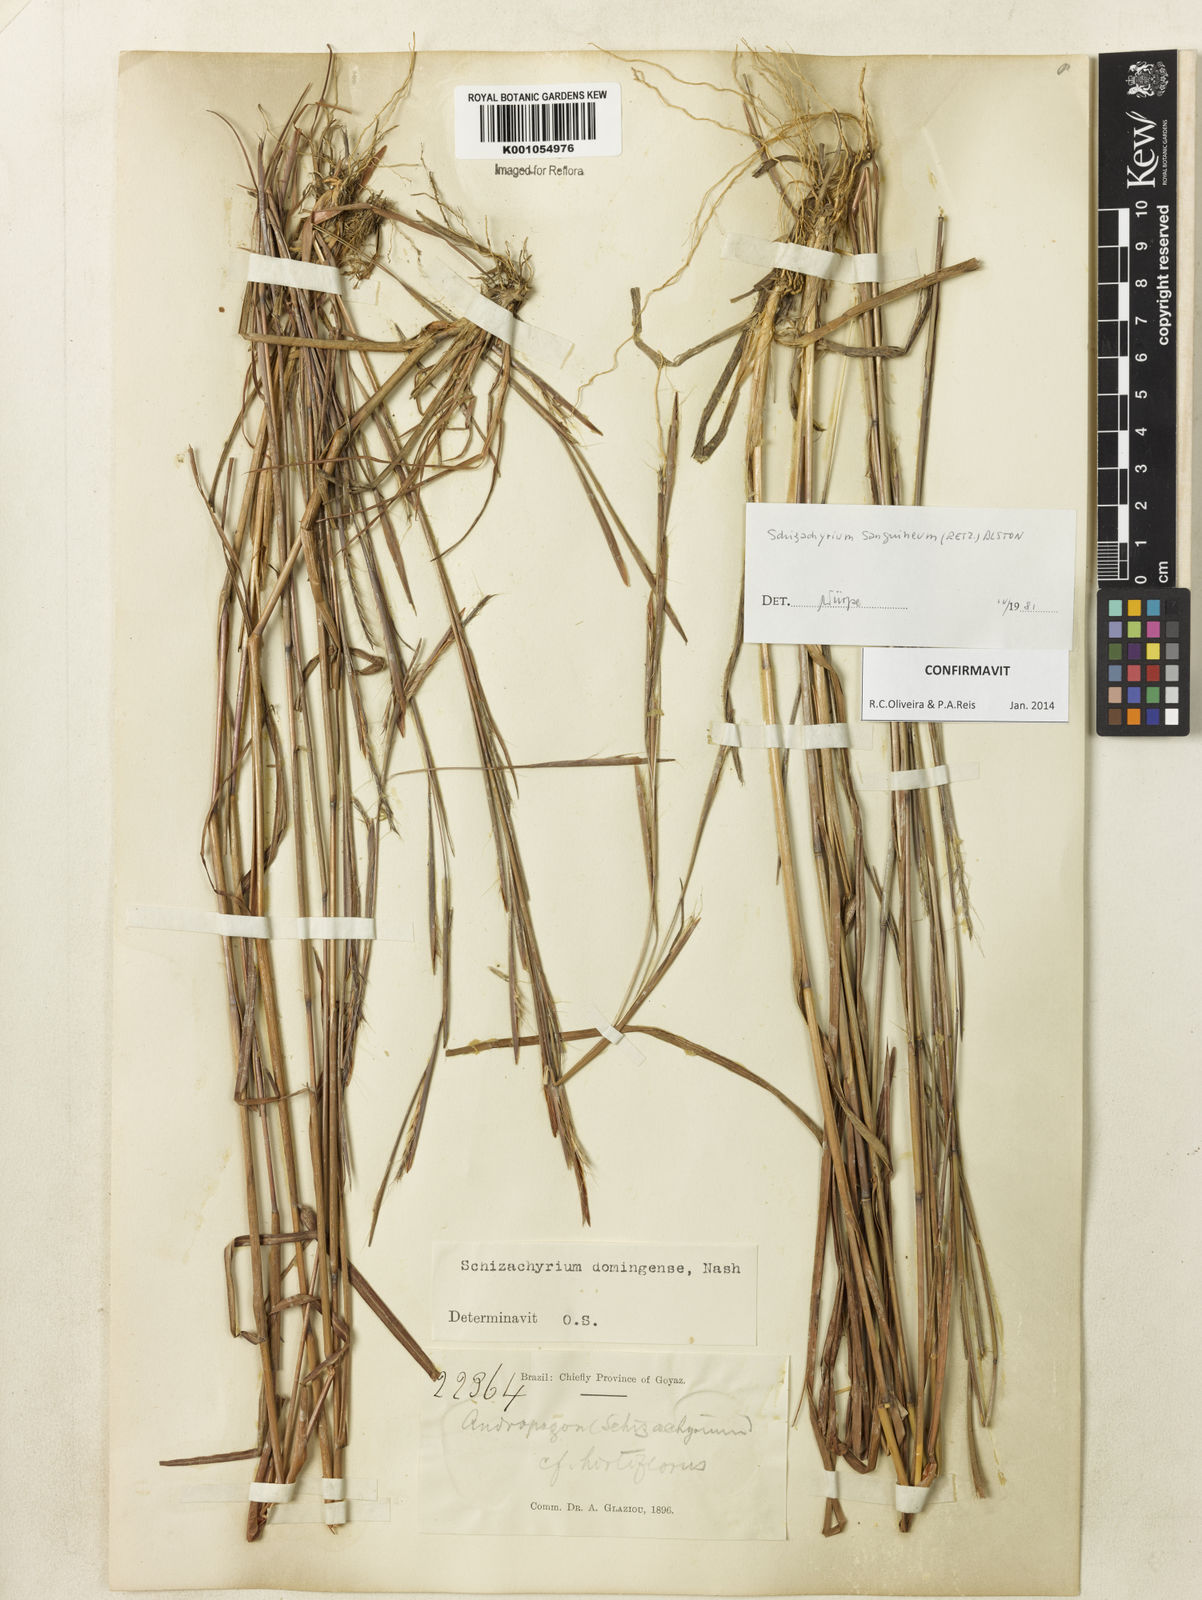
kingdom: Plantae
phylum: Tracheophyta
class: Liliopsida
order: Poales
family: Poaceae
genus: Schizachyrium
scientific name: Schizachyrium sanguineum
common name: Crimson bluestem
